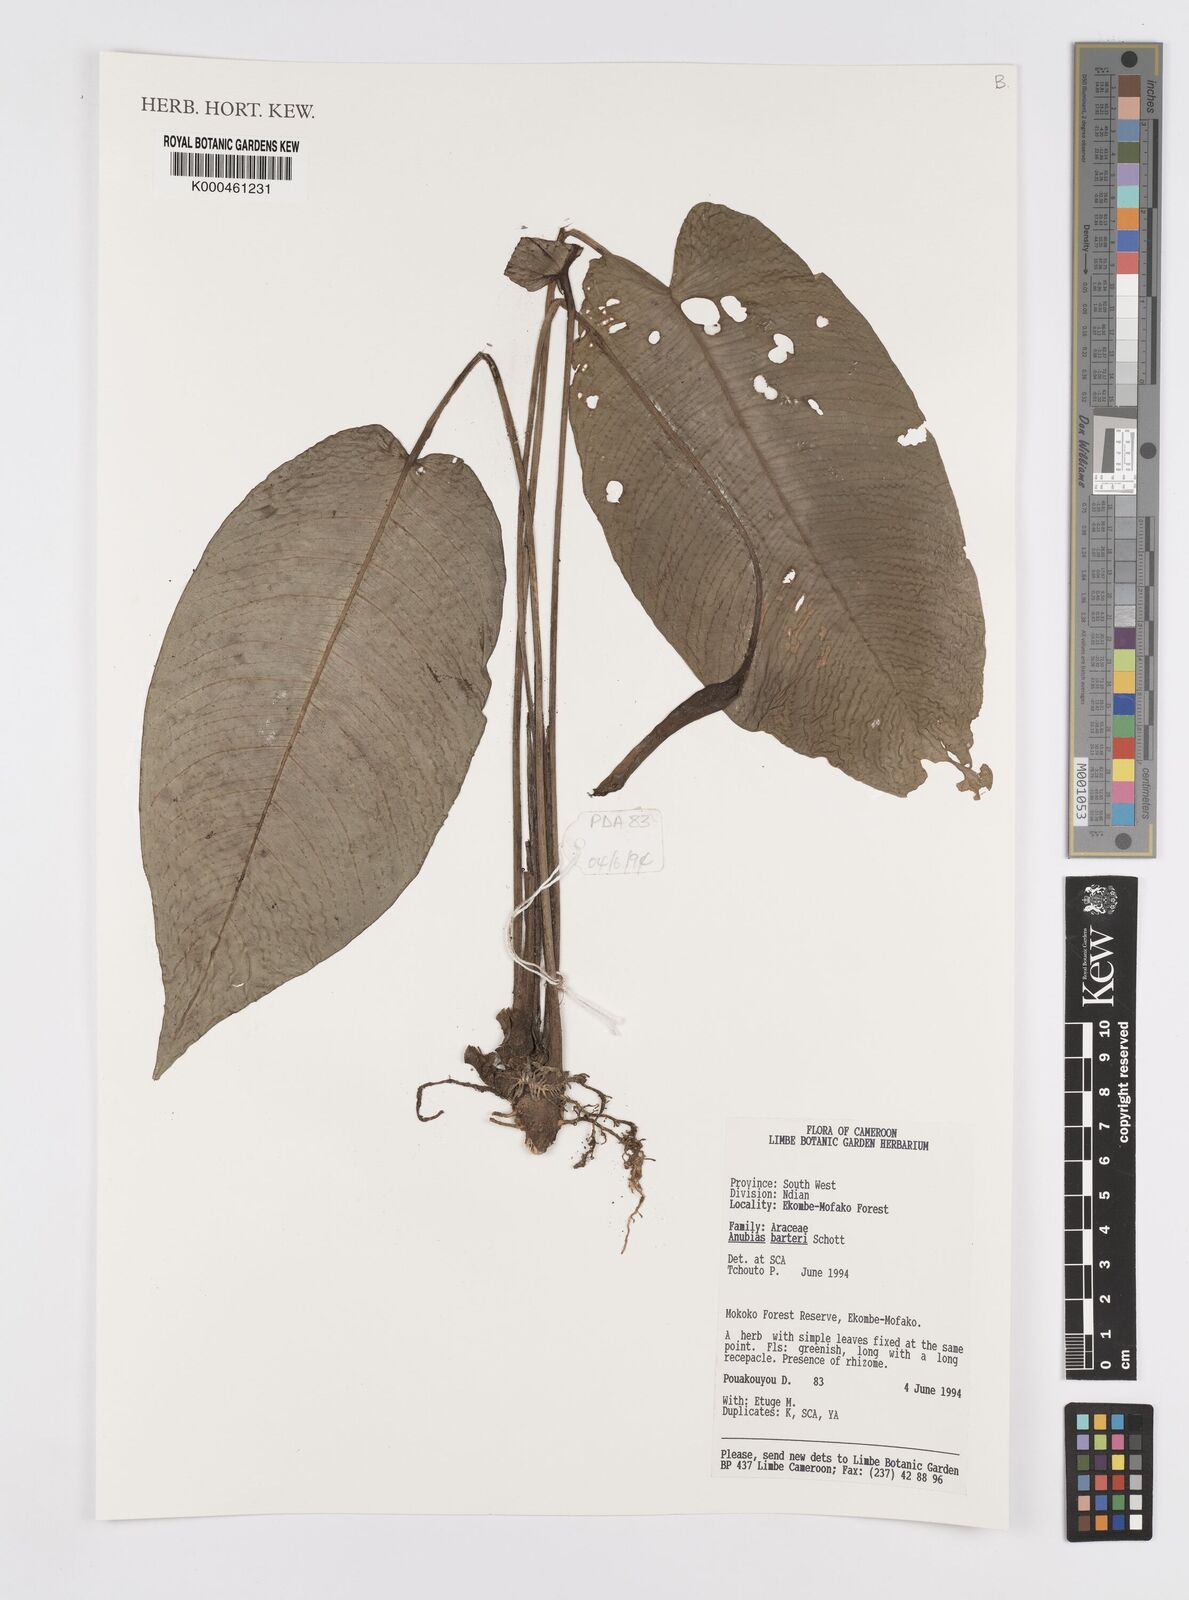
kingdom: Plantae
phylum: Tracheophyta
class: Liliopsida
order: Alismatales
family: Araceae
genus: Anubias
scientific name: Anubias barteri
